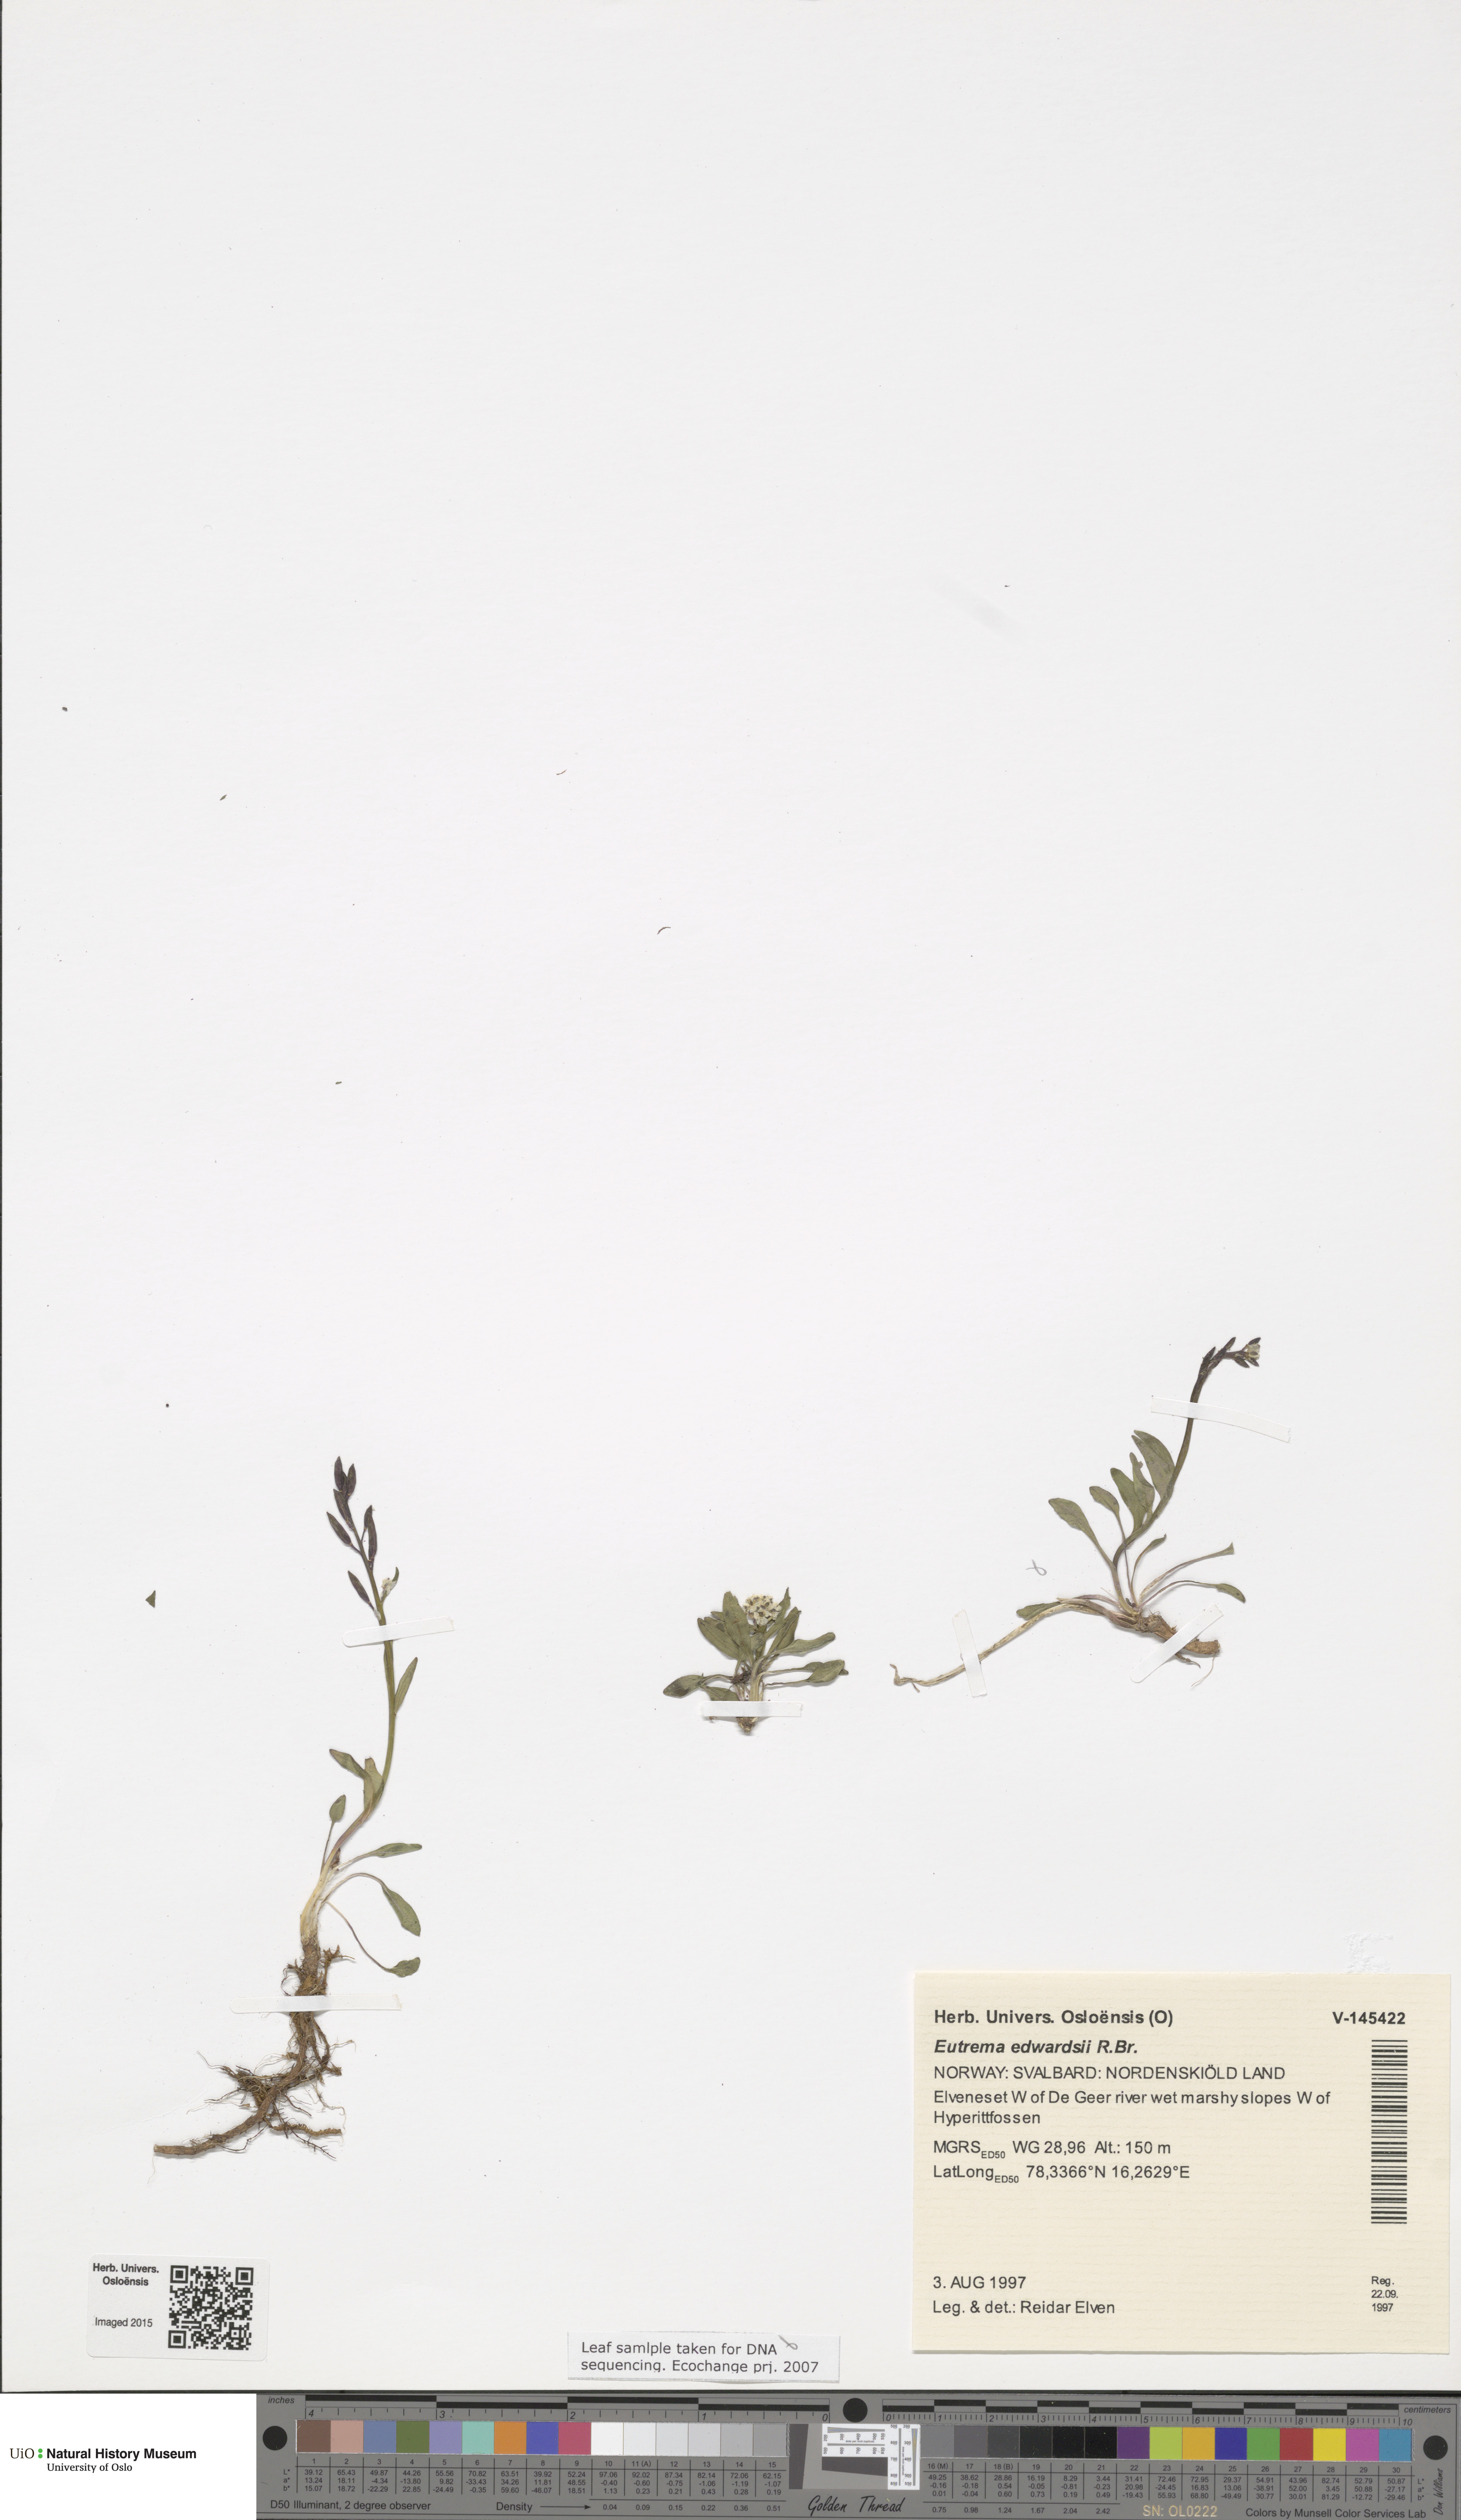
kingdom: Plantae
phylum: Tracheophyta
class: Magnoliopsida
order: Brassicales
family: Brassicaceae
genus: Eutrema
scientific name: Eutrema edwardsii
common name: Penland alpine fen mustard
